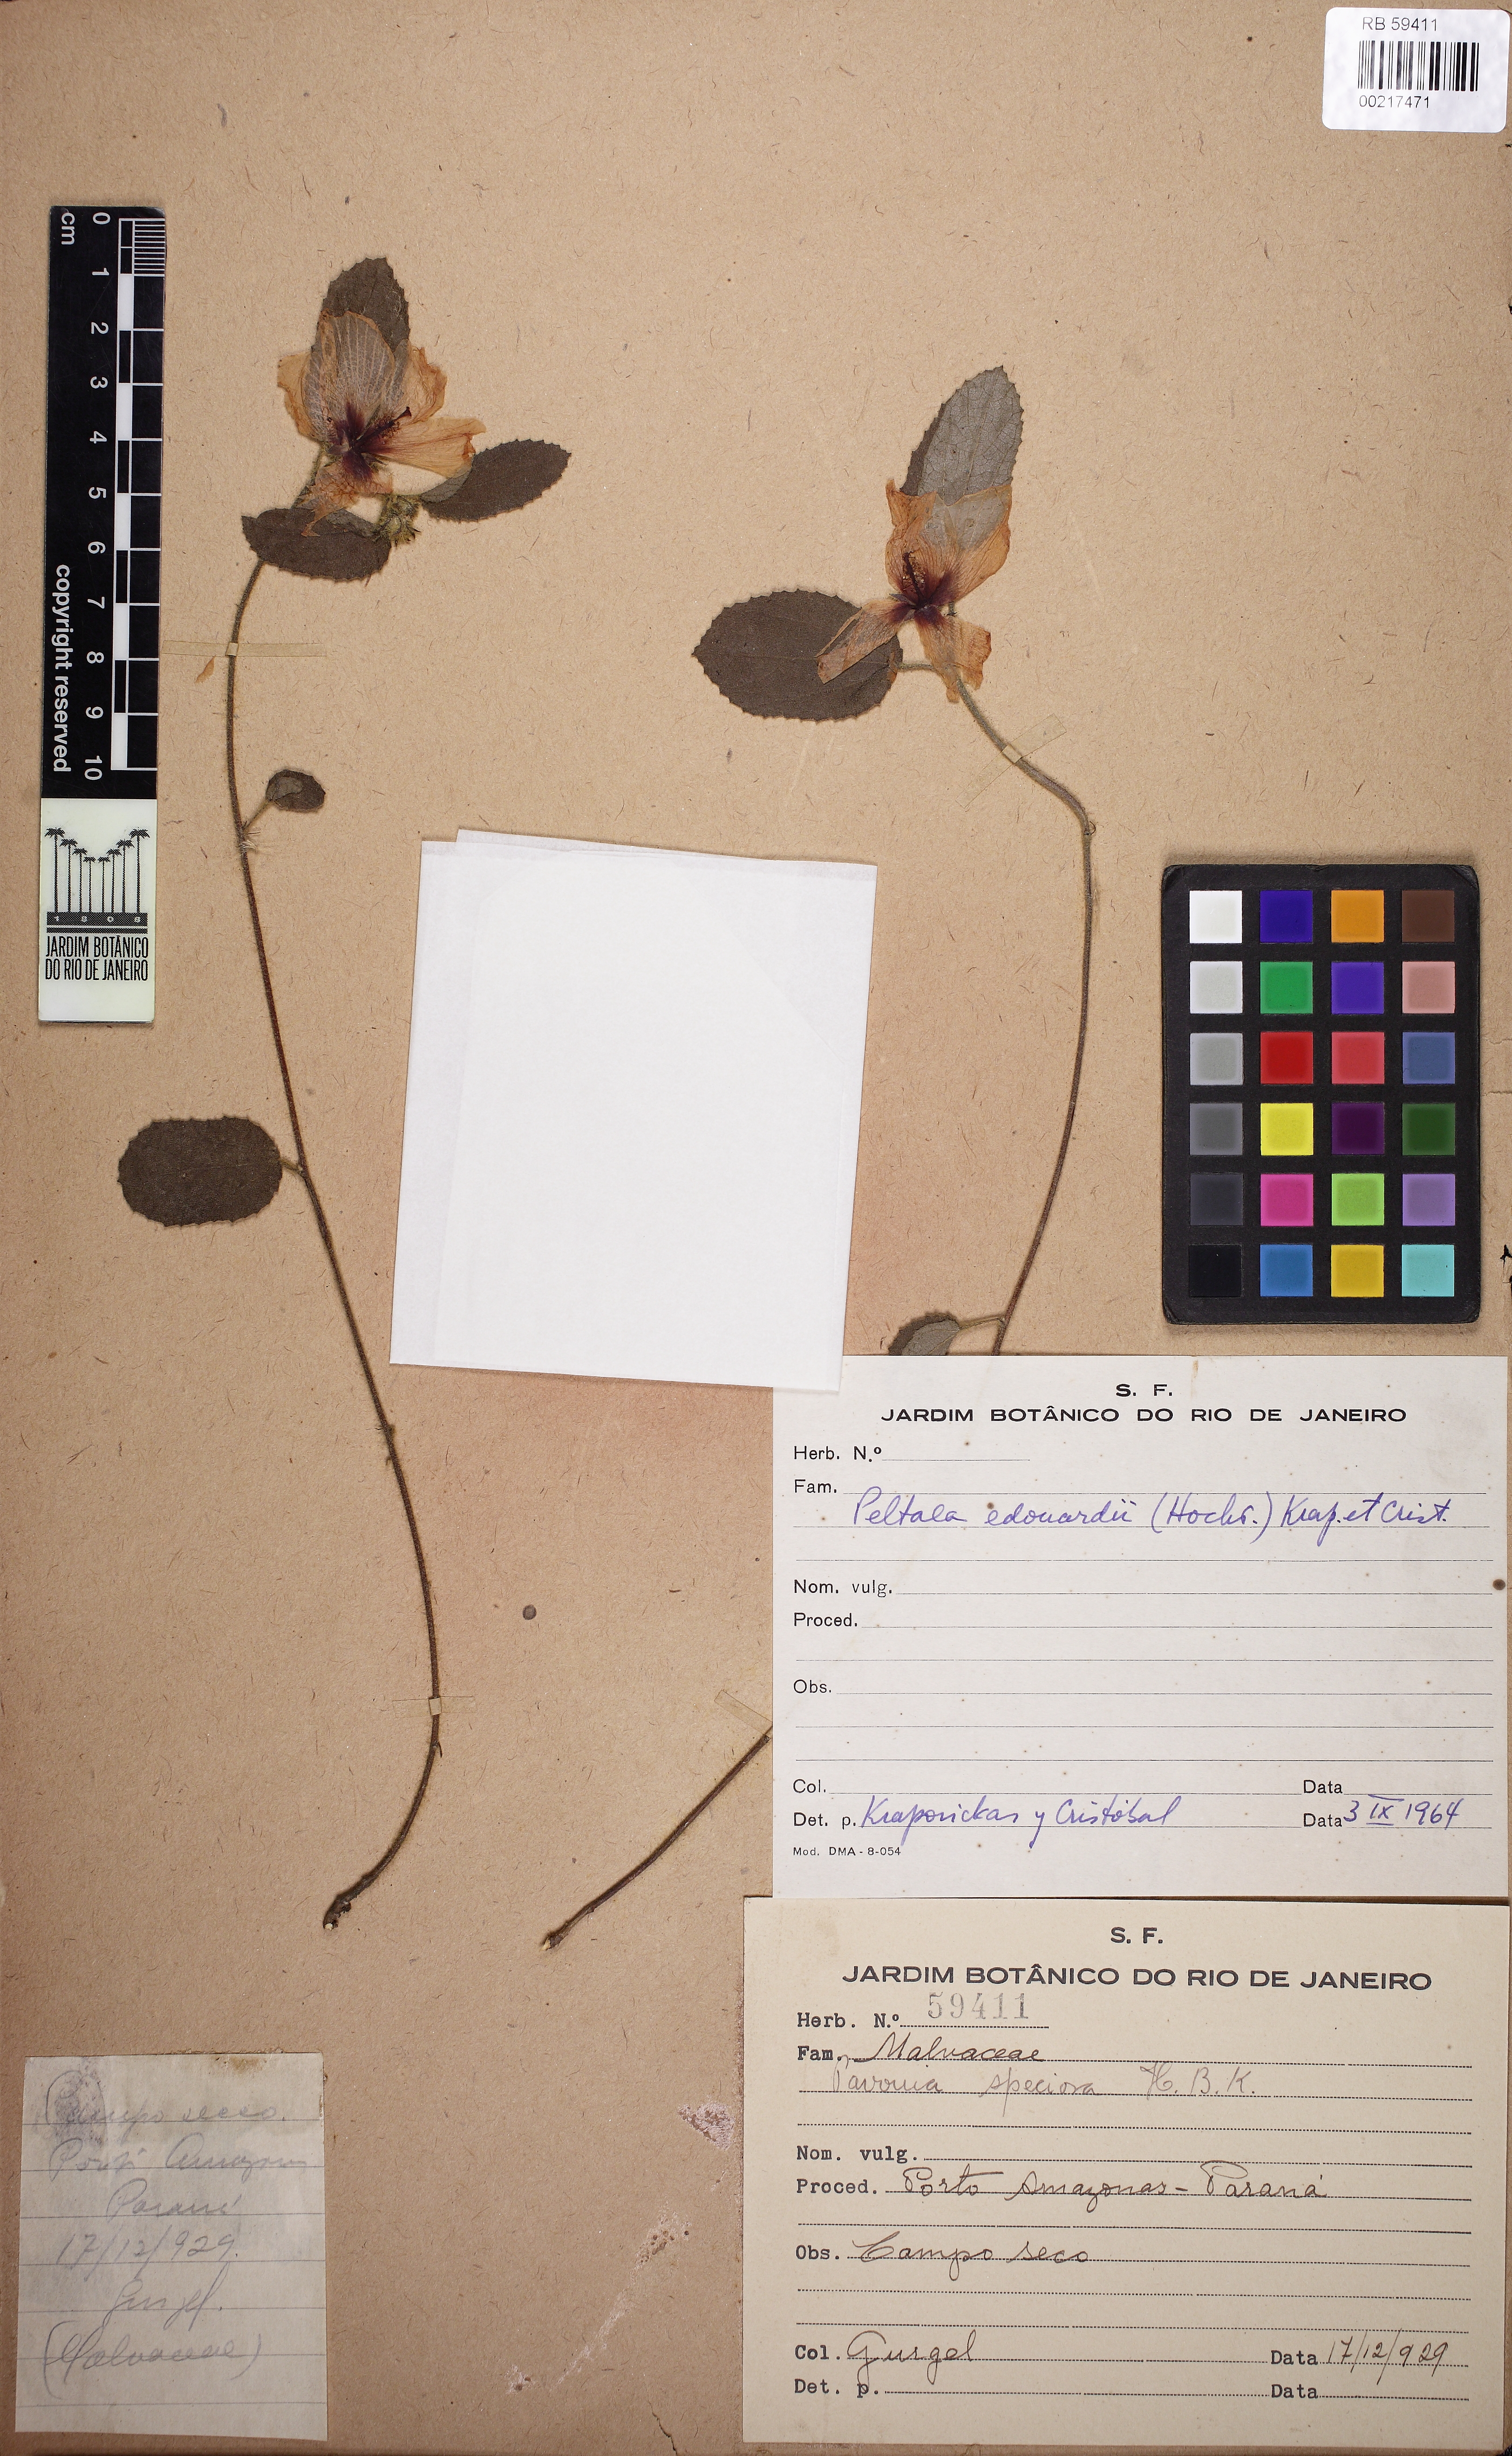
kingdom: Plantae
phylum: Tracheophyta
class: Magnoliopsida
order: Malvales
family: Malvaceae
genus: Peltaea
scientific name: Peltaea edouardii
